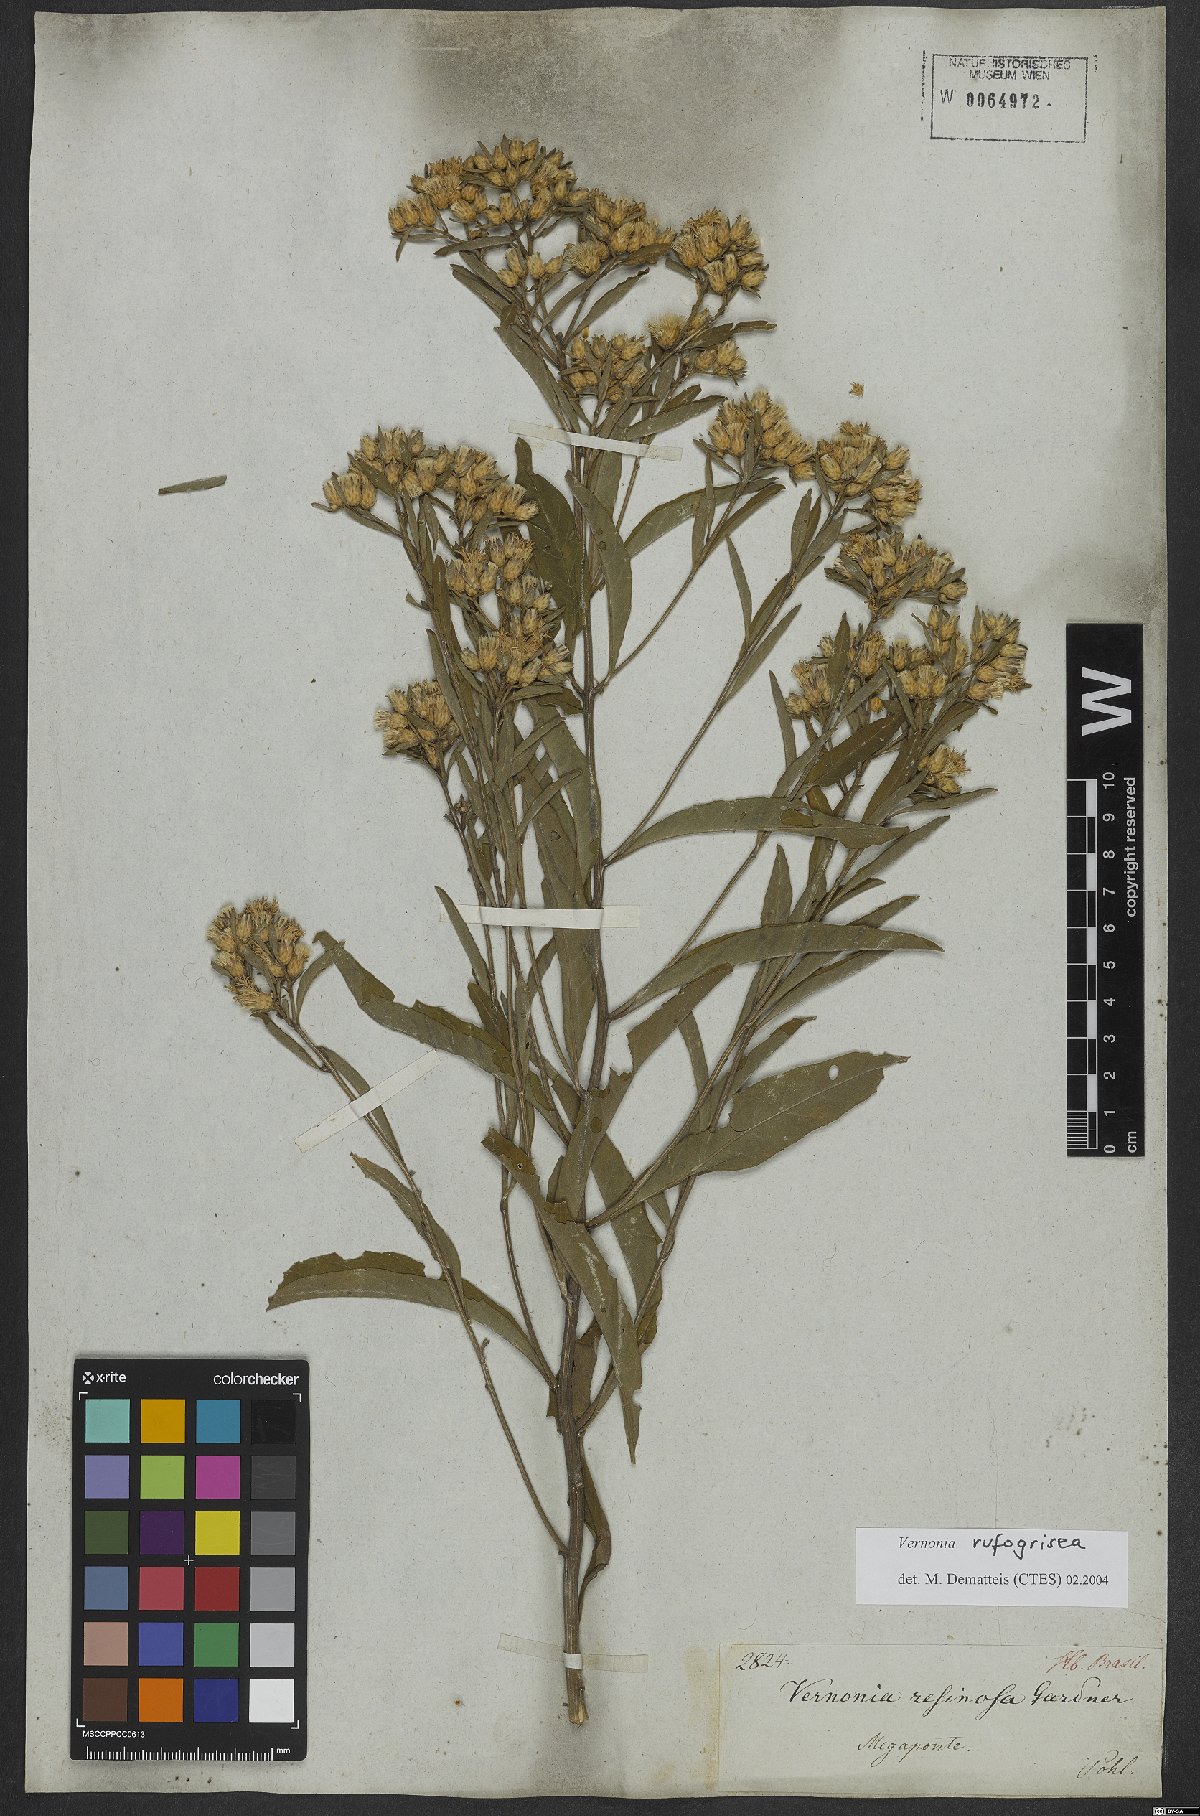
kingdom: Plantae
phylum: Tracheophyta
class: Magnoliopsida
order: Asterales
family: Asteraceae
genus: Lepidaploa
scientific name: Lepidaploa rufogrisea
